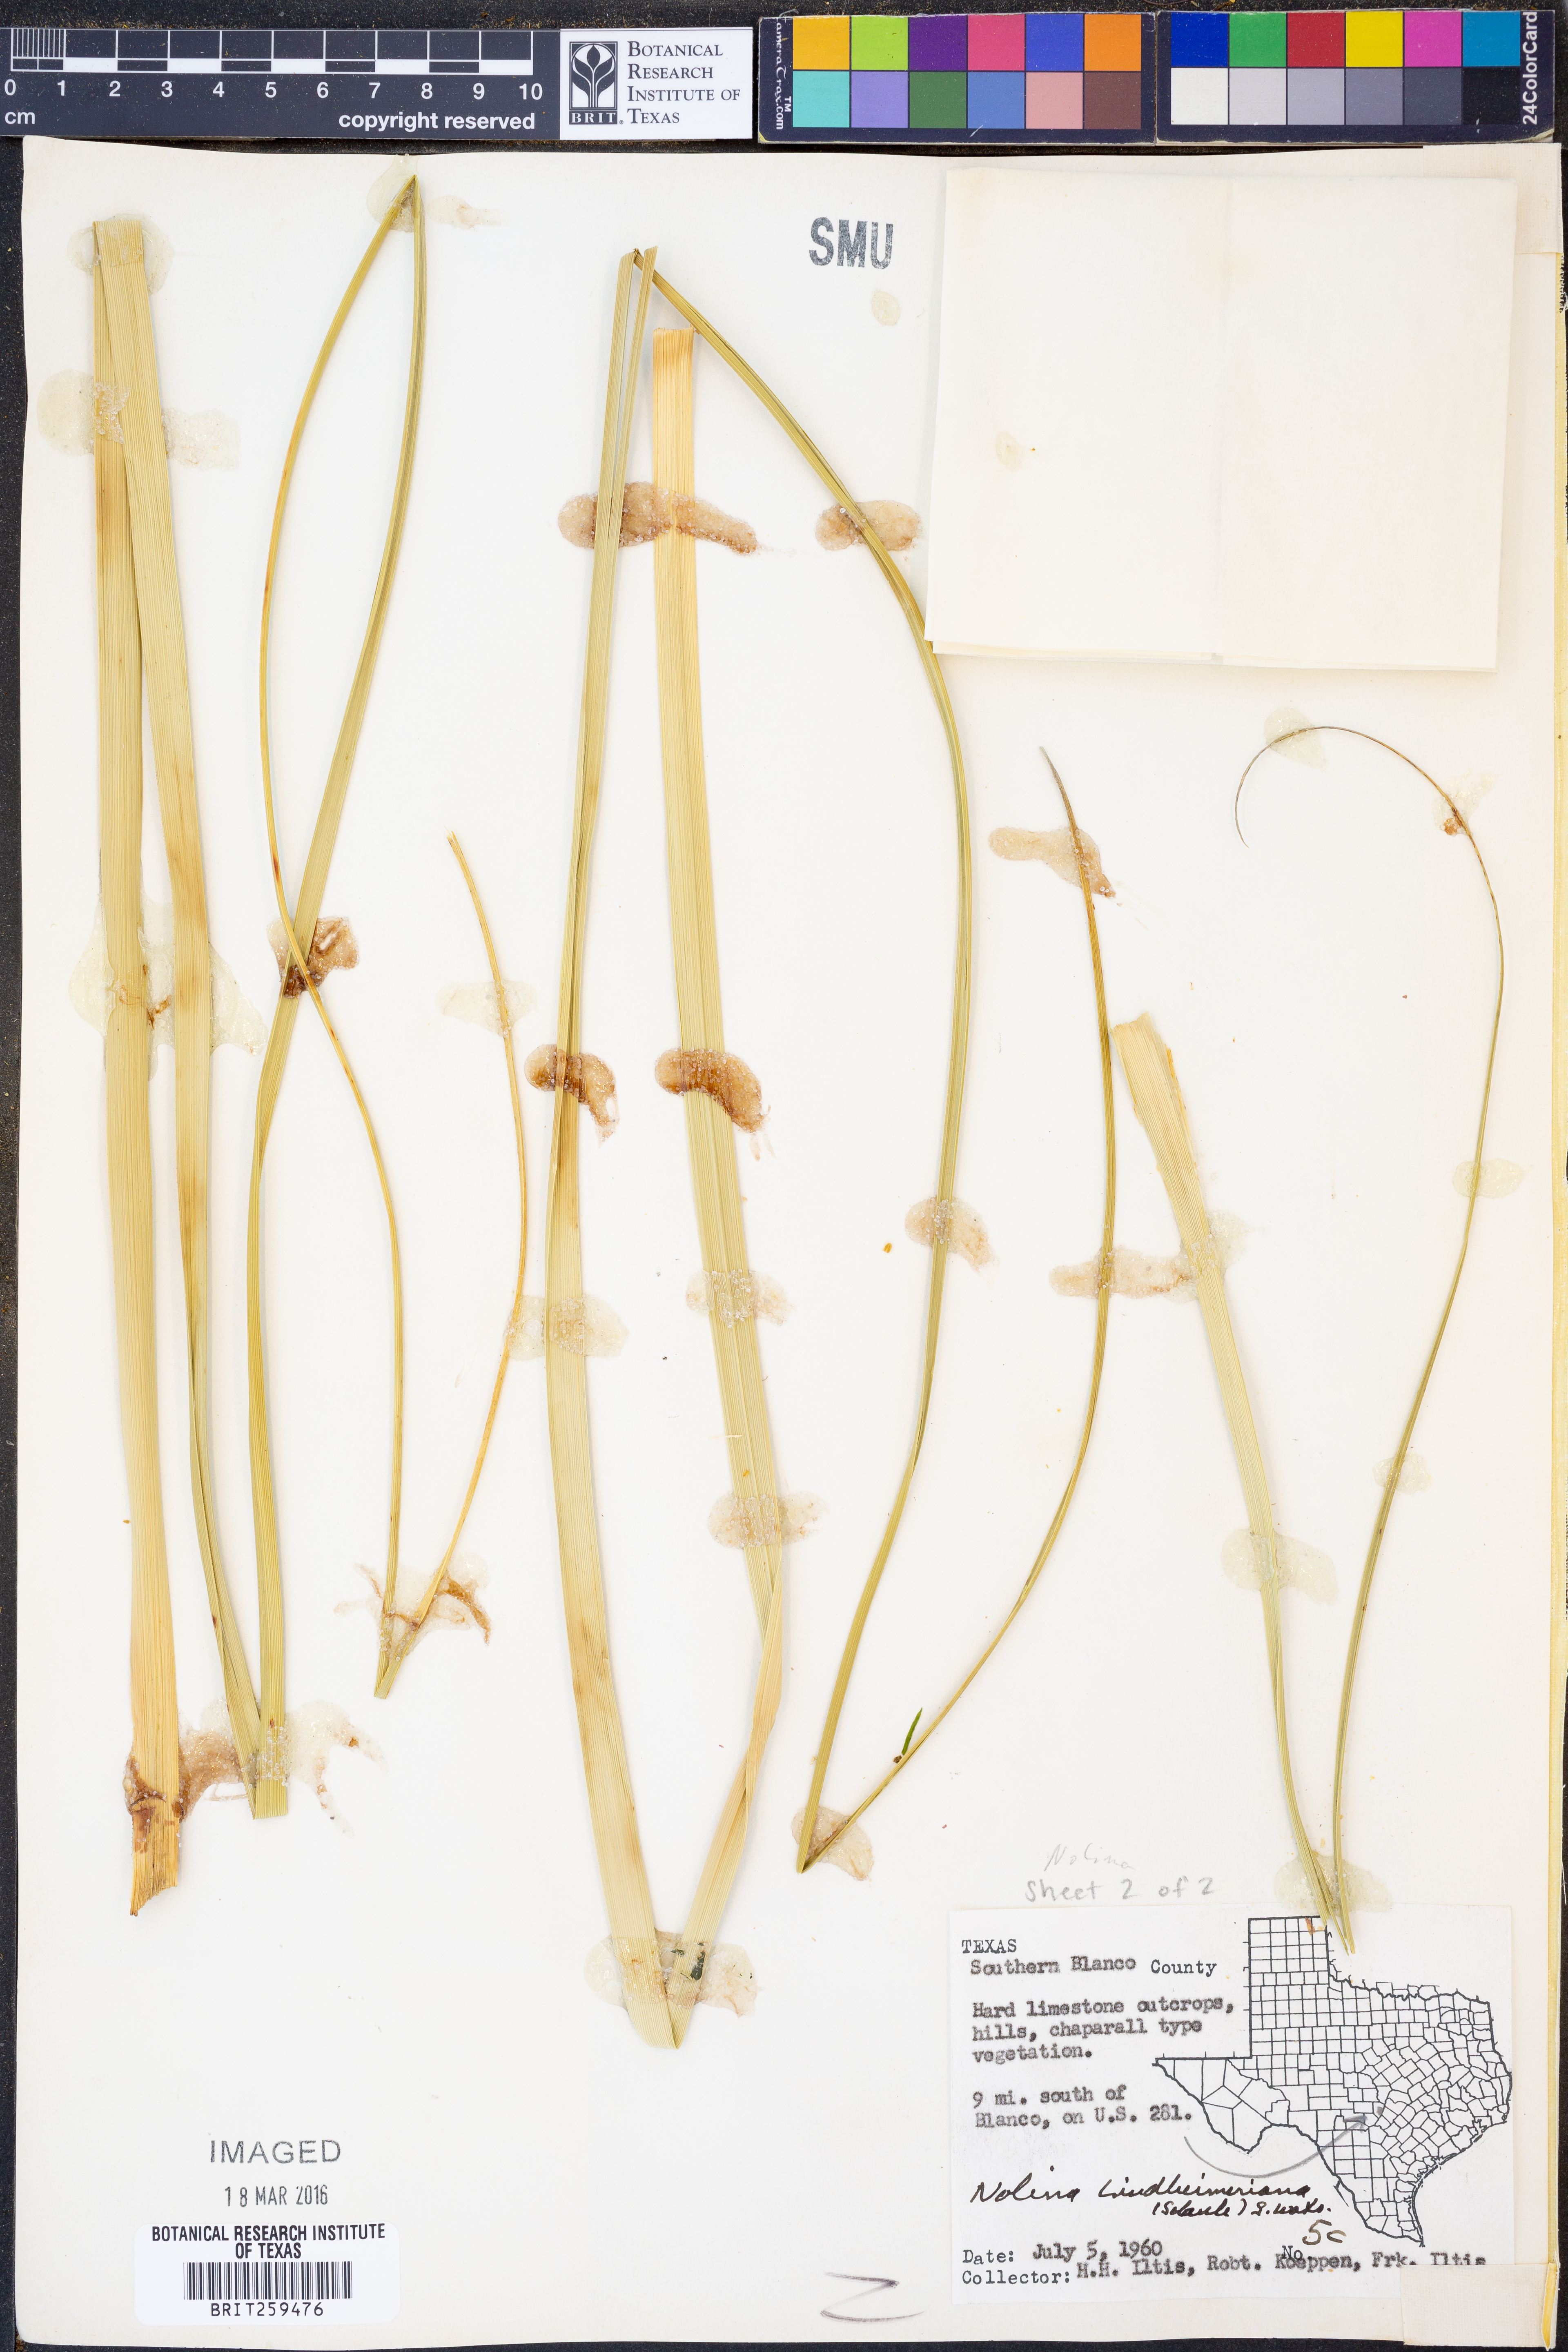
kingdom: Plantae
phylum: Tracheophyta
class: Liliopsida
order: Asparagales
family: Asparagaceae
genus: Nolina
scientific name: Nolina lindheimeriana
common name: Lindheimer's bear-grass
